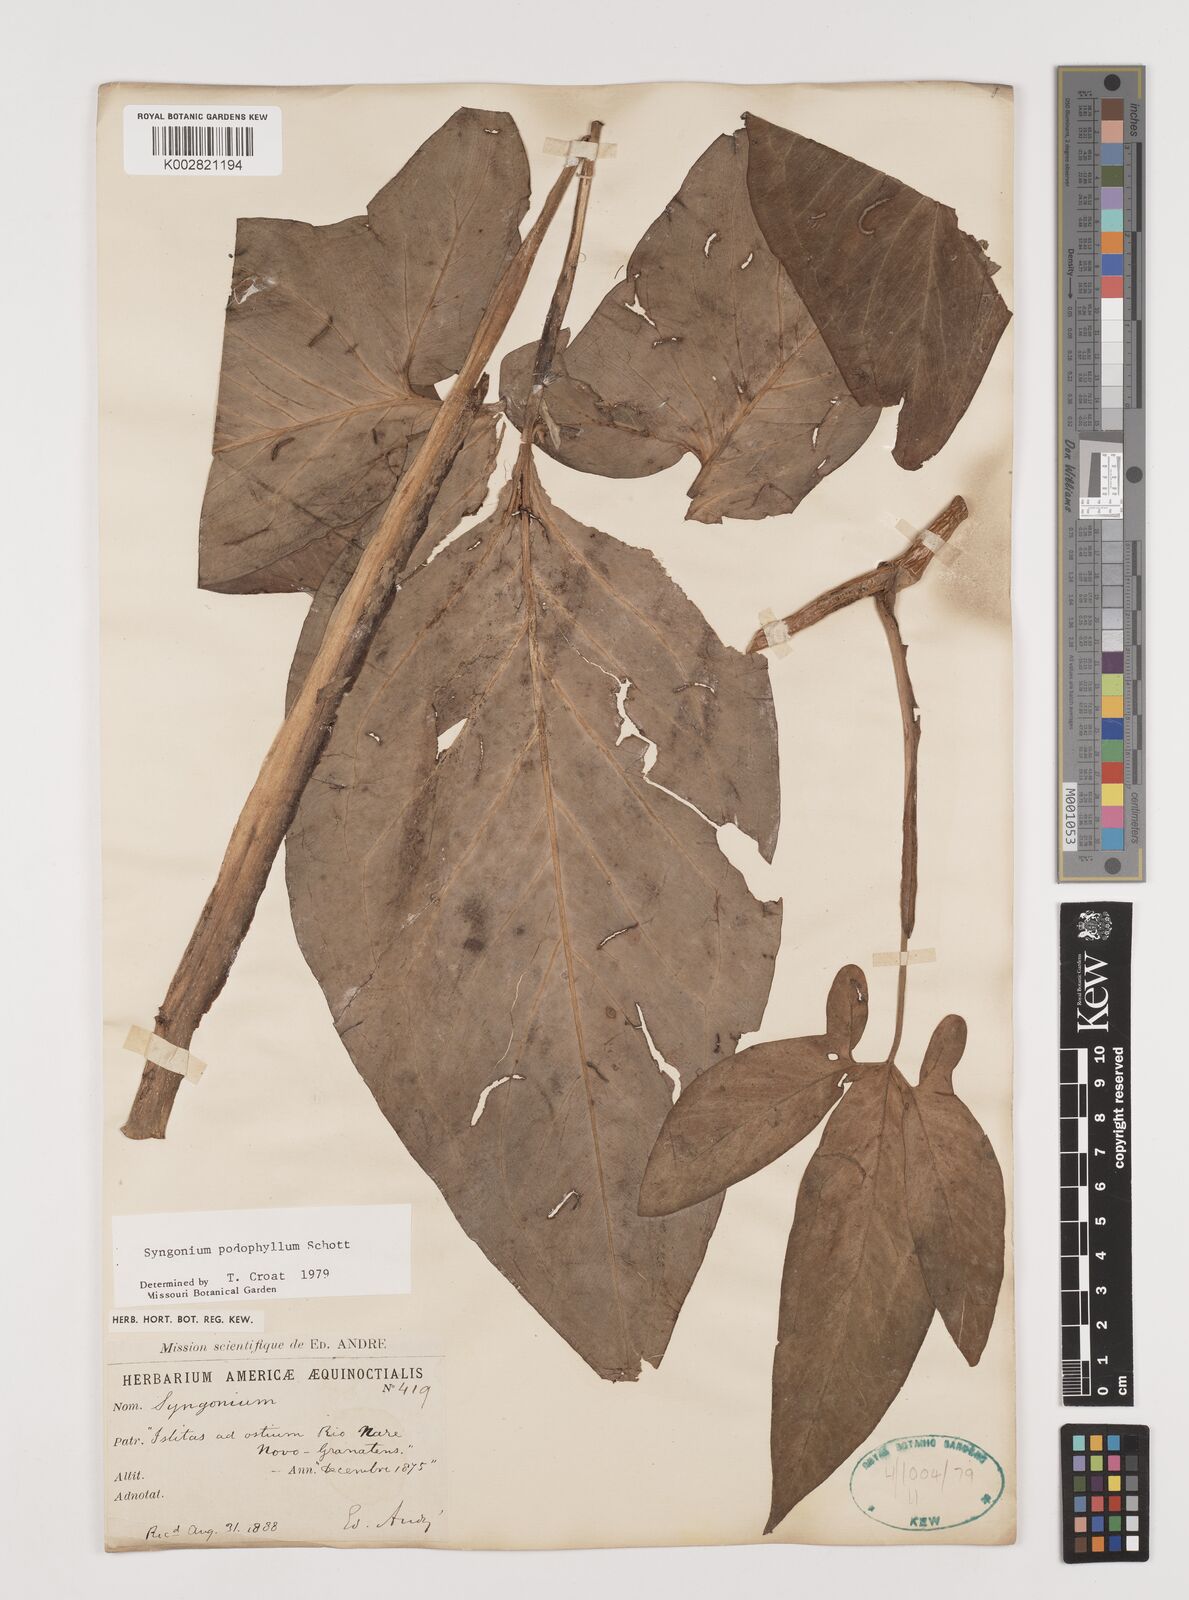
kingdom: Plantae
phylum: Tracheophyta
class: Liliopsida
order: Alismatales
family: Araceae
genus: Syngonium
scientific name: Syngonium podophyllum
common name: American evergreen
